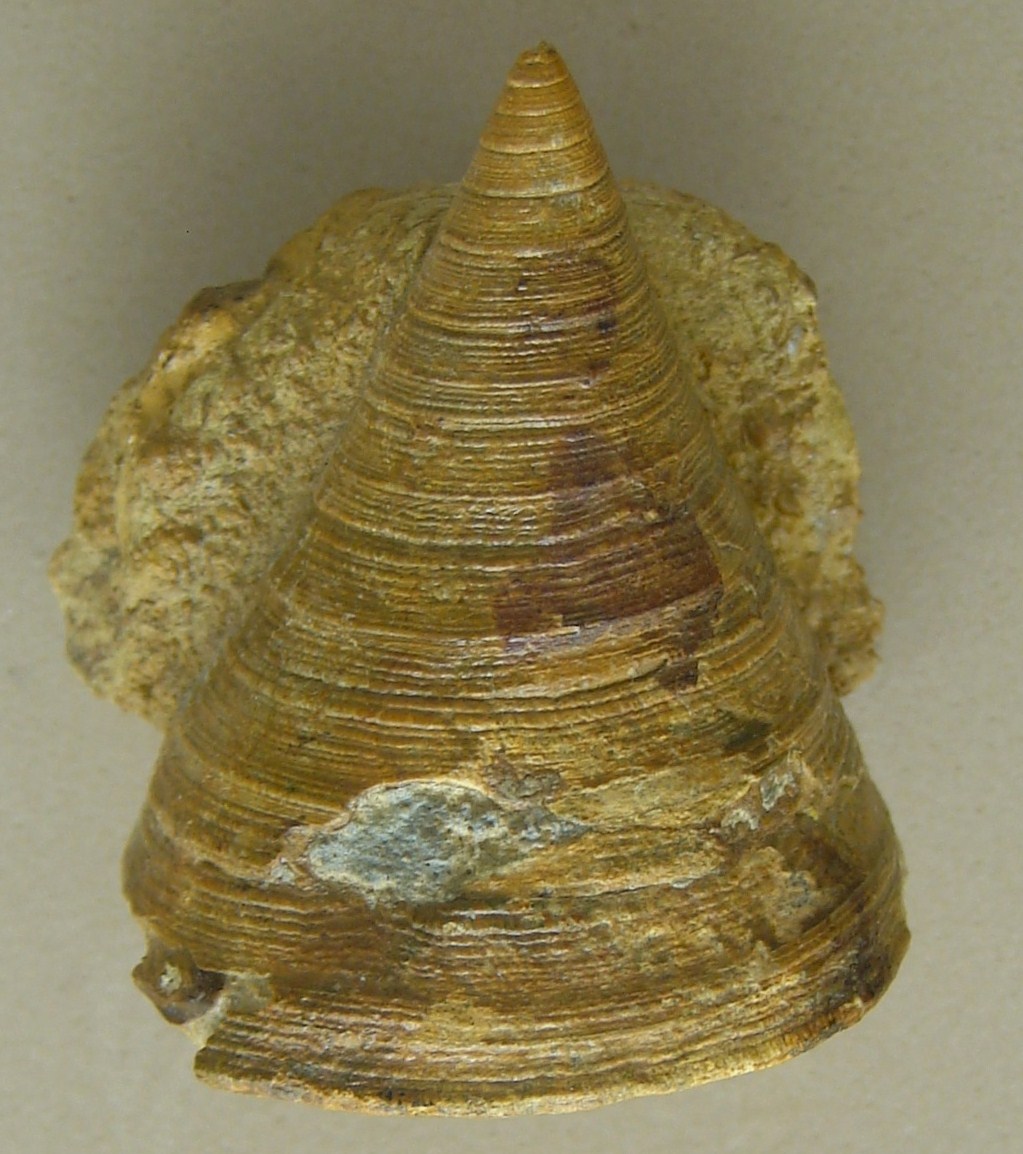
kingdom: Animalia
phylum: Mollusca
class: Gastropoda
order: Pleurotomariida
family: Pleurotomariidae
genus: Leptomaria
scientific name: Leptomaria Trochus punctatus
